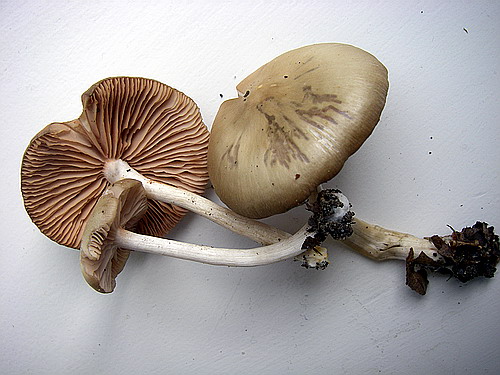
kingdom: Fungi
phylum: Basidiomycota
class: Agaricomycetes
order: Agaricales
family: Entolomataceae
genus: Entoloma
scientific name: Entoloma
